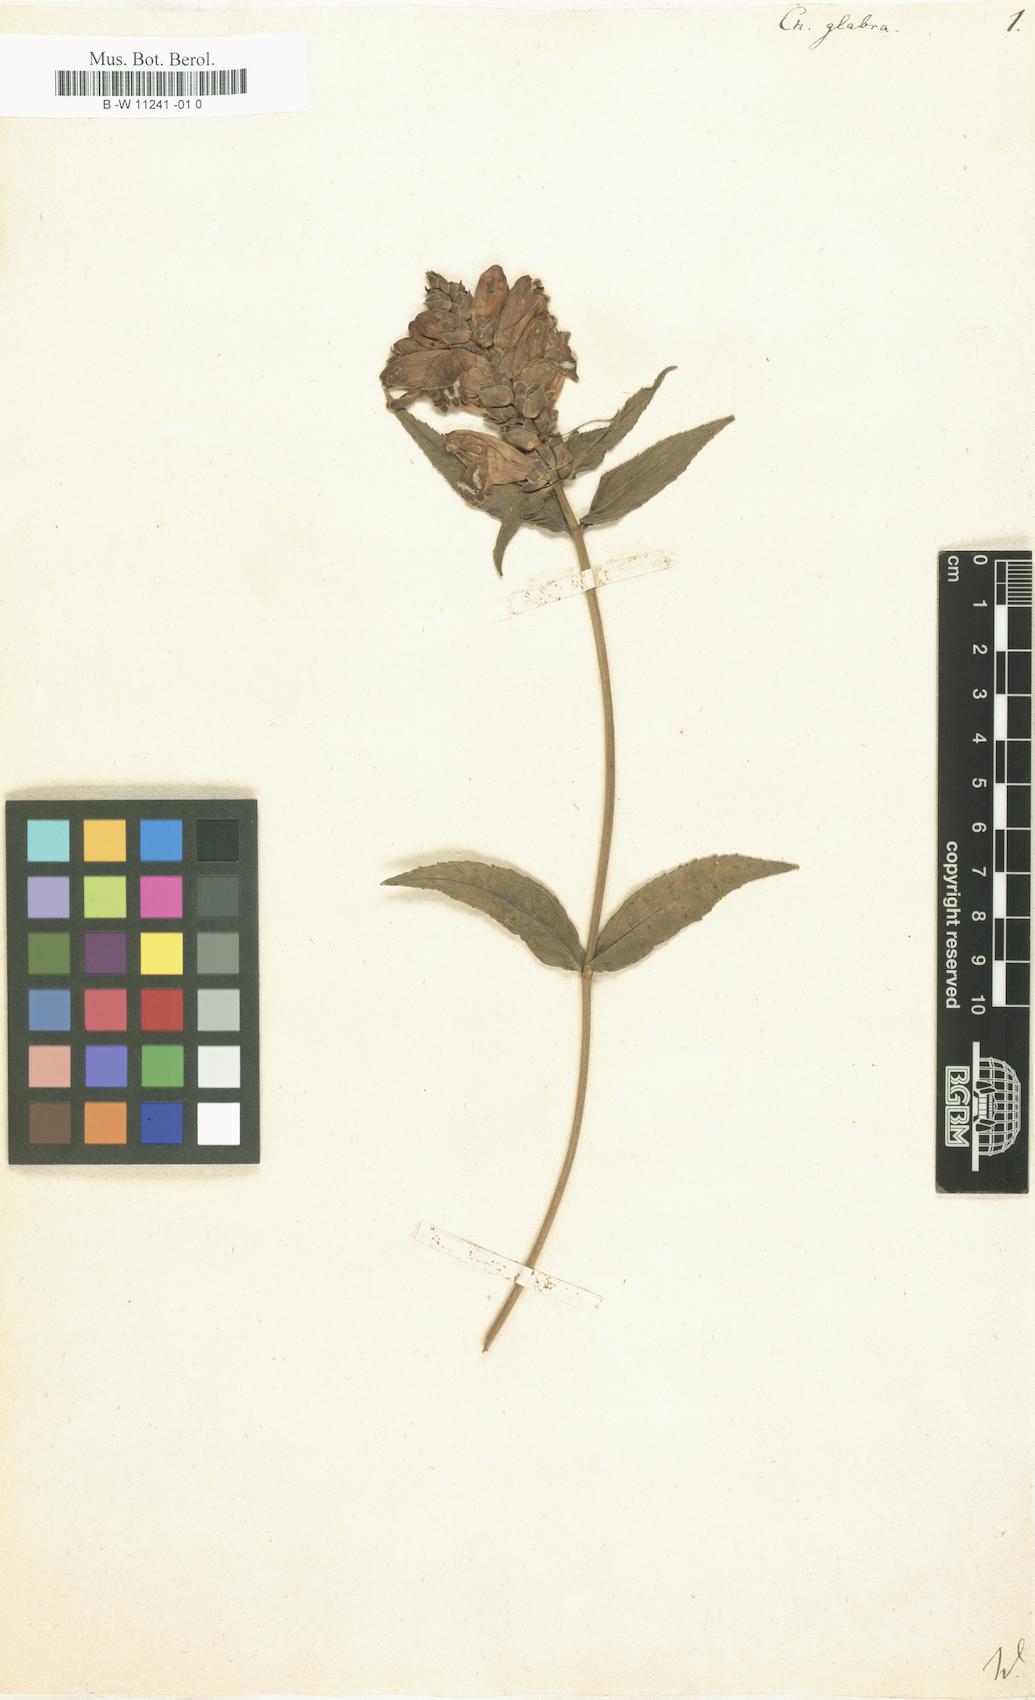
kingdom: Plantae
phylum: Tracheophyta
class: Magnoliopsida
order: Lamiales
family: Plantaginaceae
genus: Chelone
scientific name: Chelone glabra
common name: Snakehead
